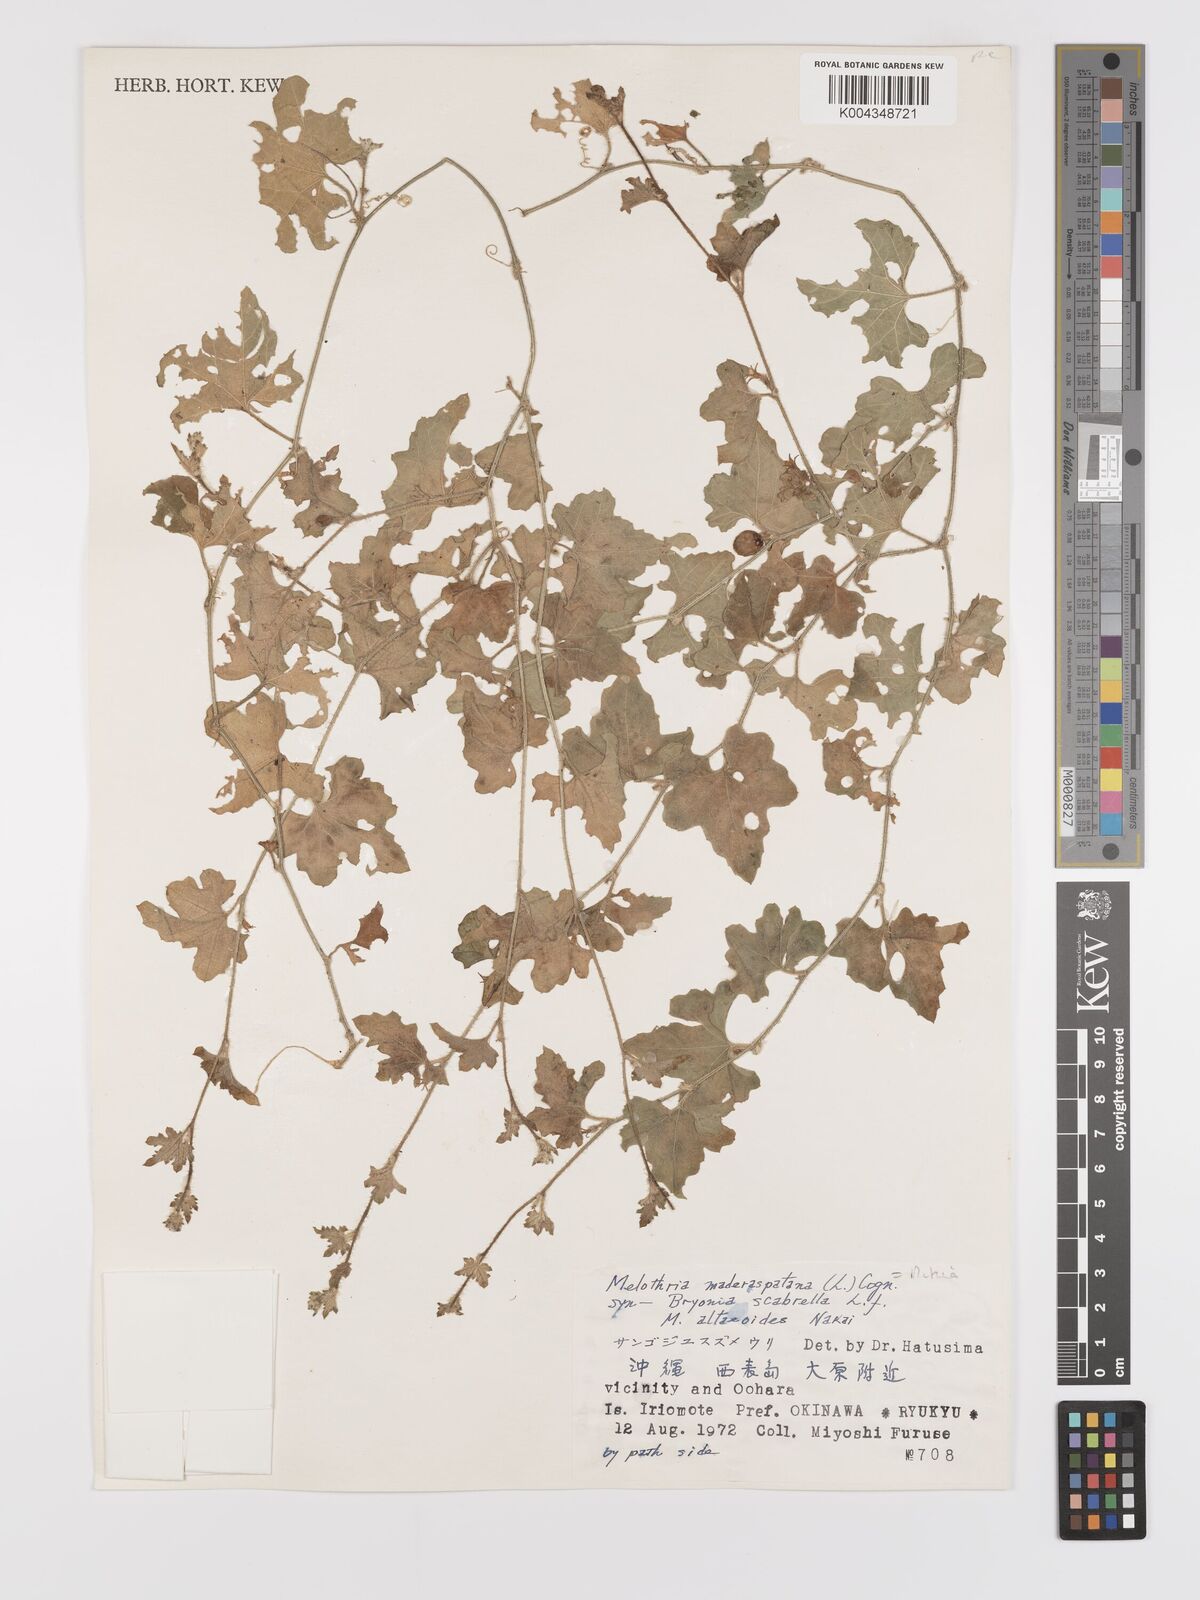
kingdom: Plantae
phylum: Tracheophyta
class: Magnoliopsida
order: Cucurbitales
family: Cucurbitaceae
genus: Cucumis
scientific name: Cucumis maderaspatanus
